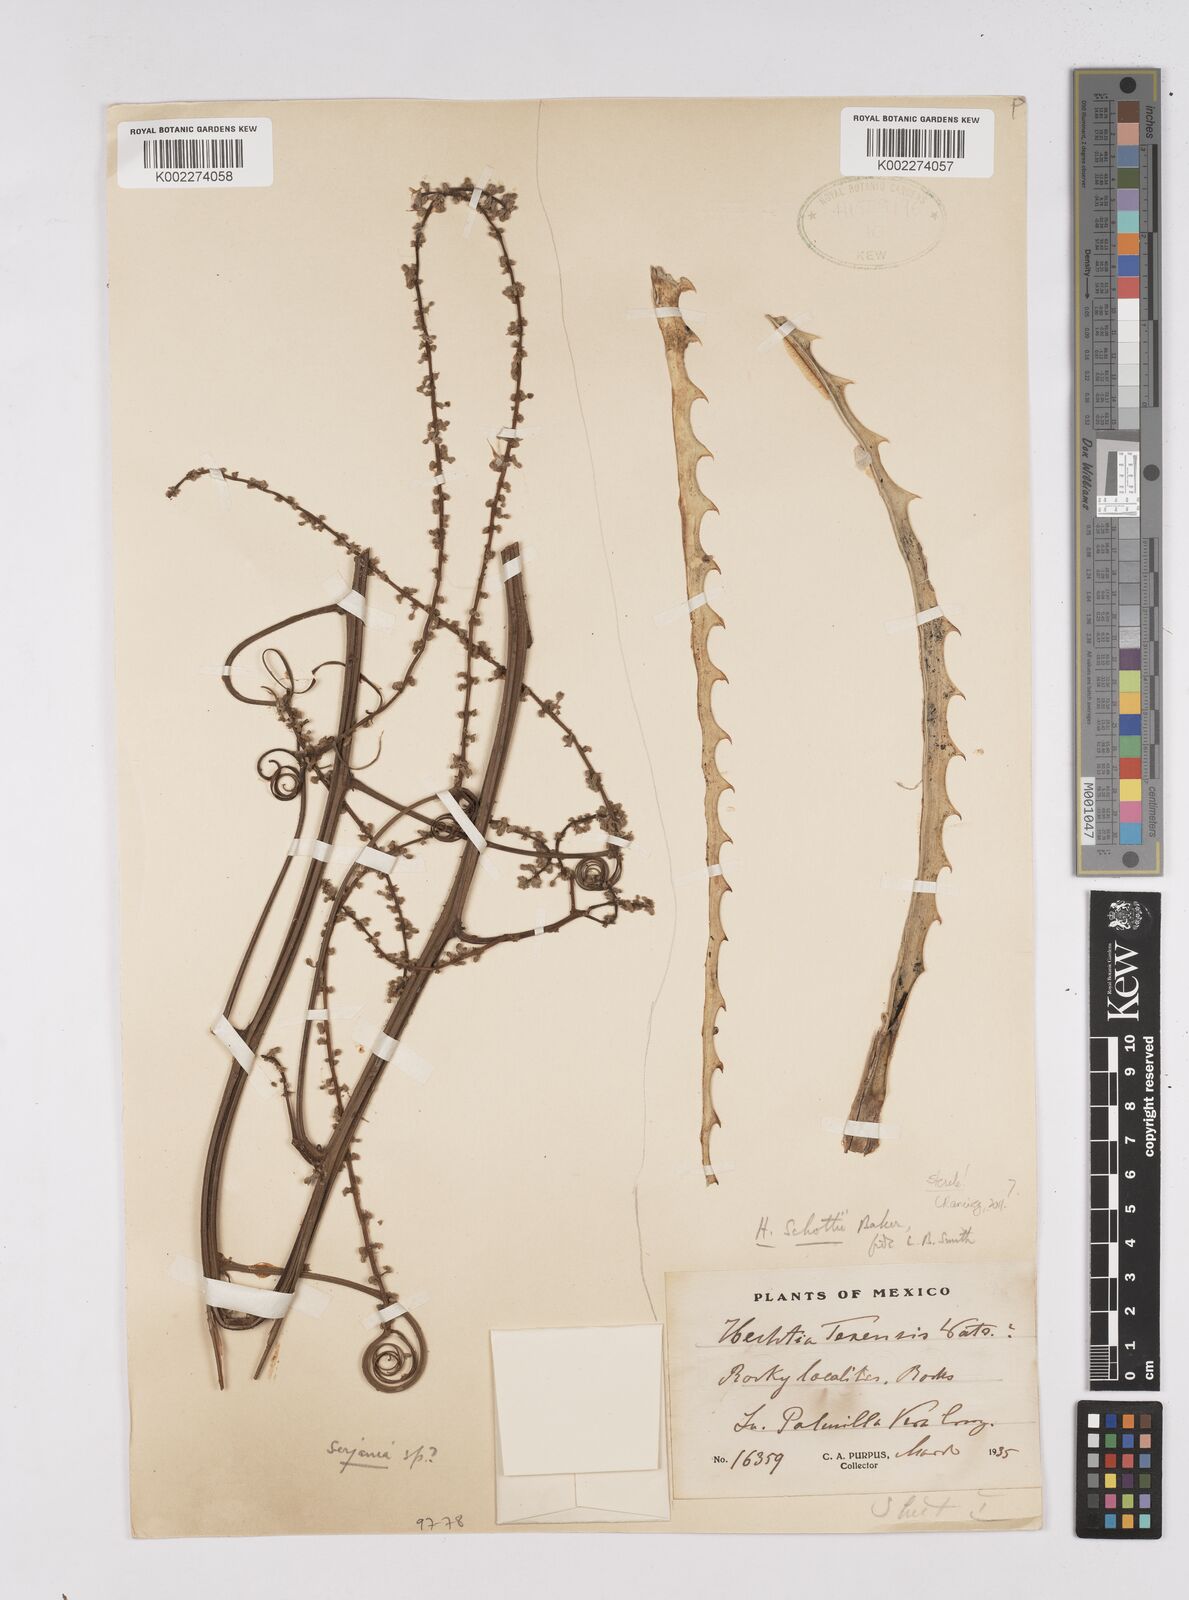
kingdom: Plantae
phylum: Tracheophyta
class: Liliopsida
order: Poales
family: Bromeliaceae
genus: Hechtia
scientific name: Hechtia texensis
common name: False agave
